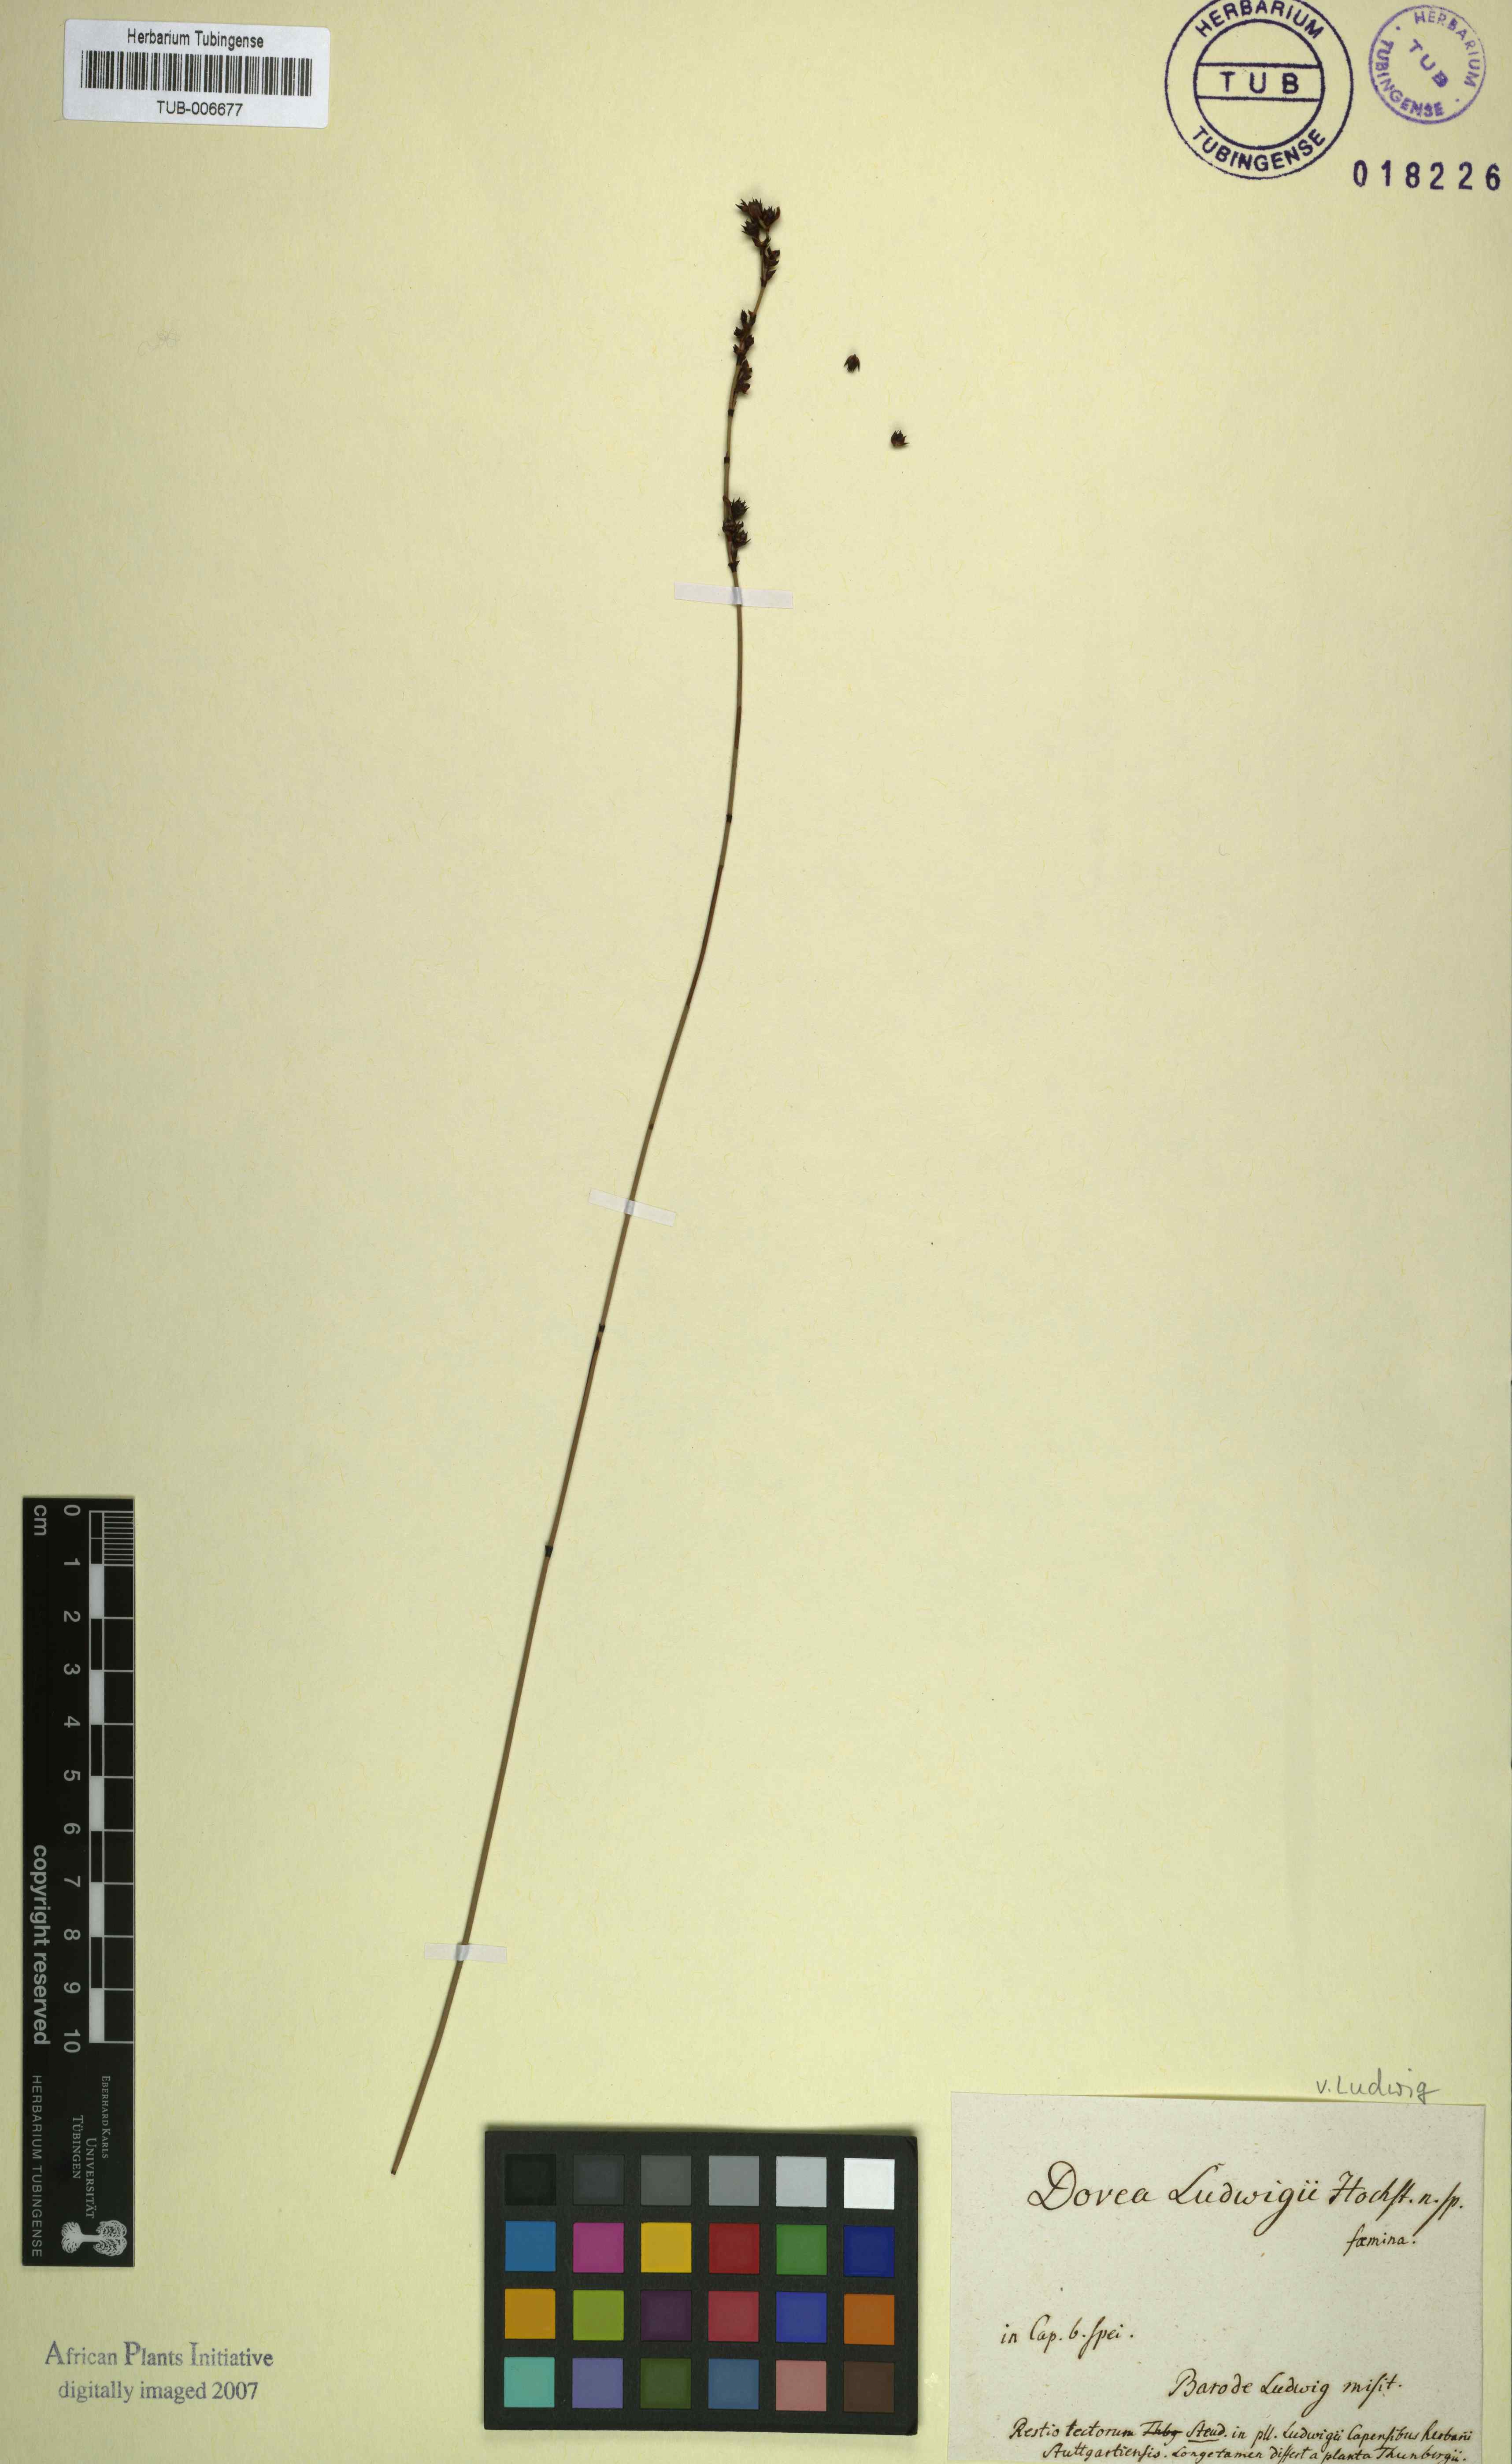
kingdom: Plantae
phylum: Tracheophyta
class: Liliopsida
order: Poales
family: Restionaceae
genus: Elegia
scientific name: Elegia
